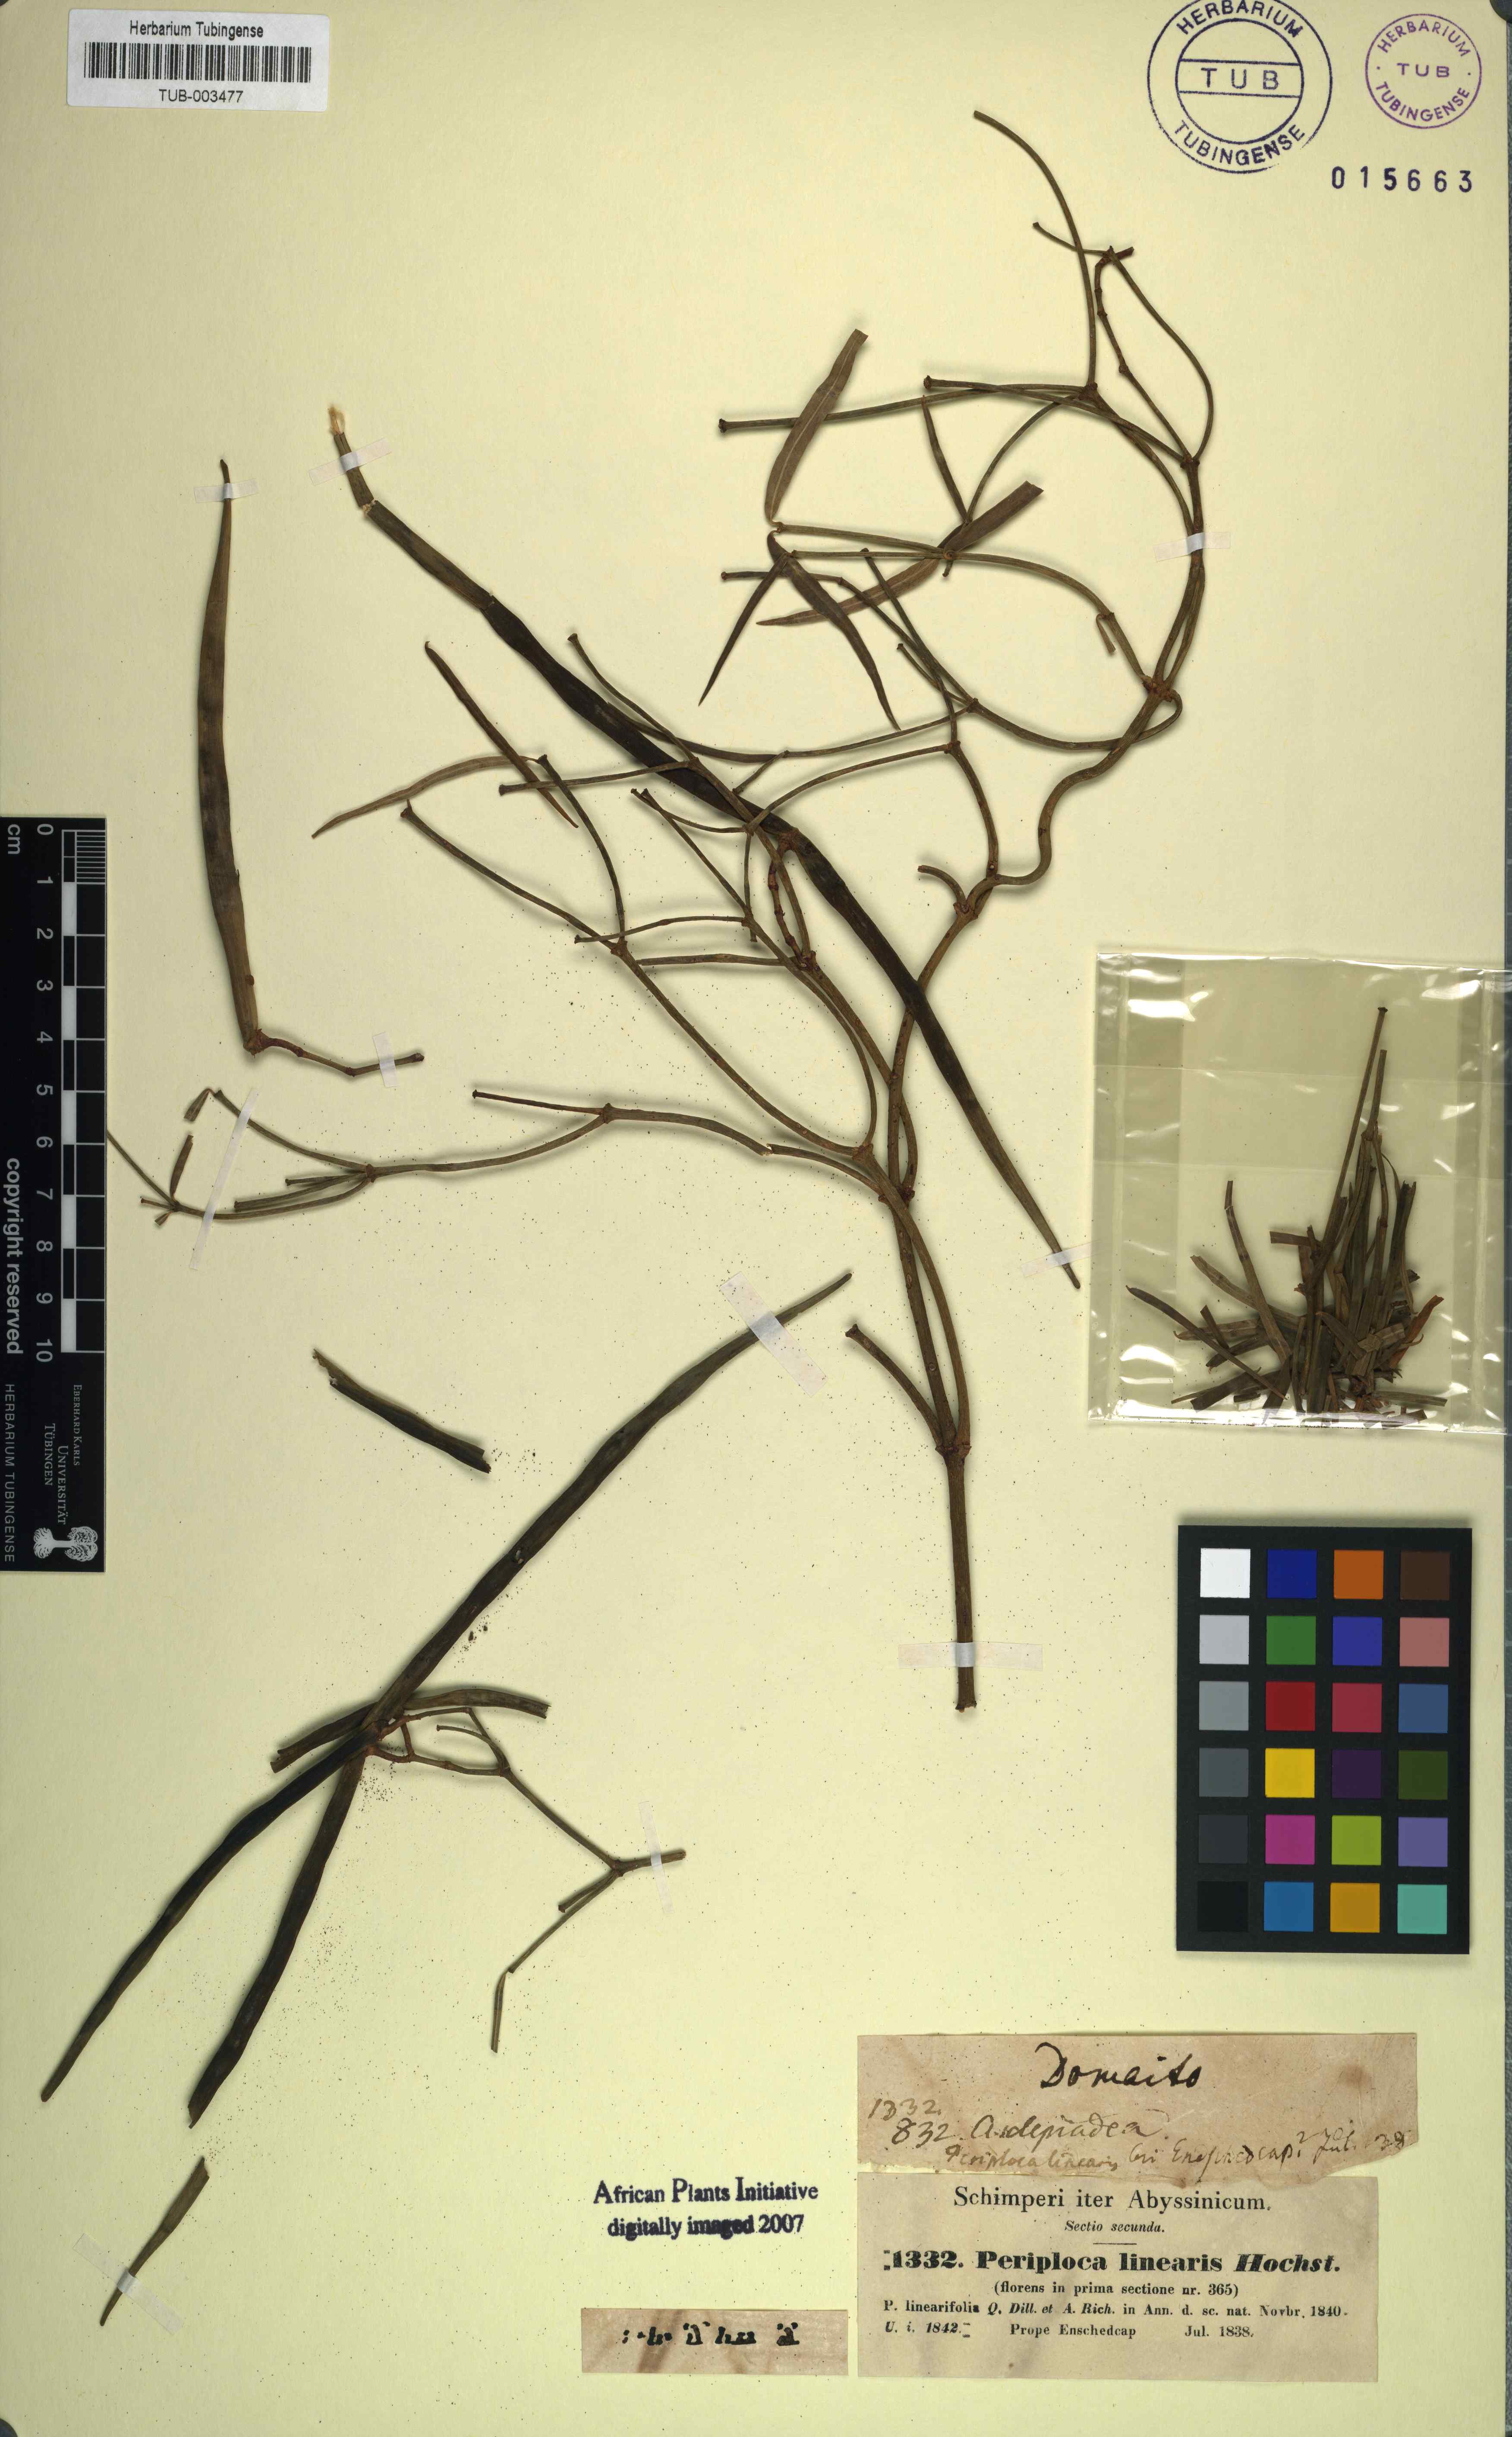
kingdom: Plantae
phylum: Tracheophyta
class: Magnoliopsida
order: Gentianales
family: Apocynaceae
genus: Periploca
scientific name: Periploca linearifolia
